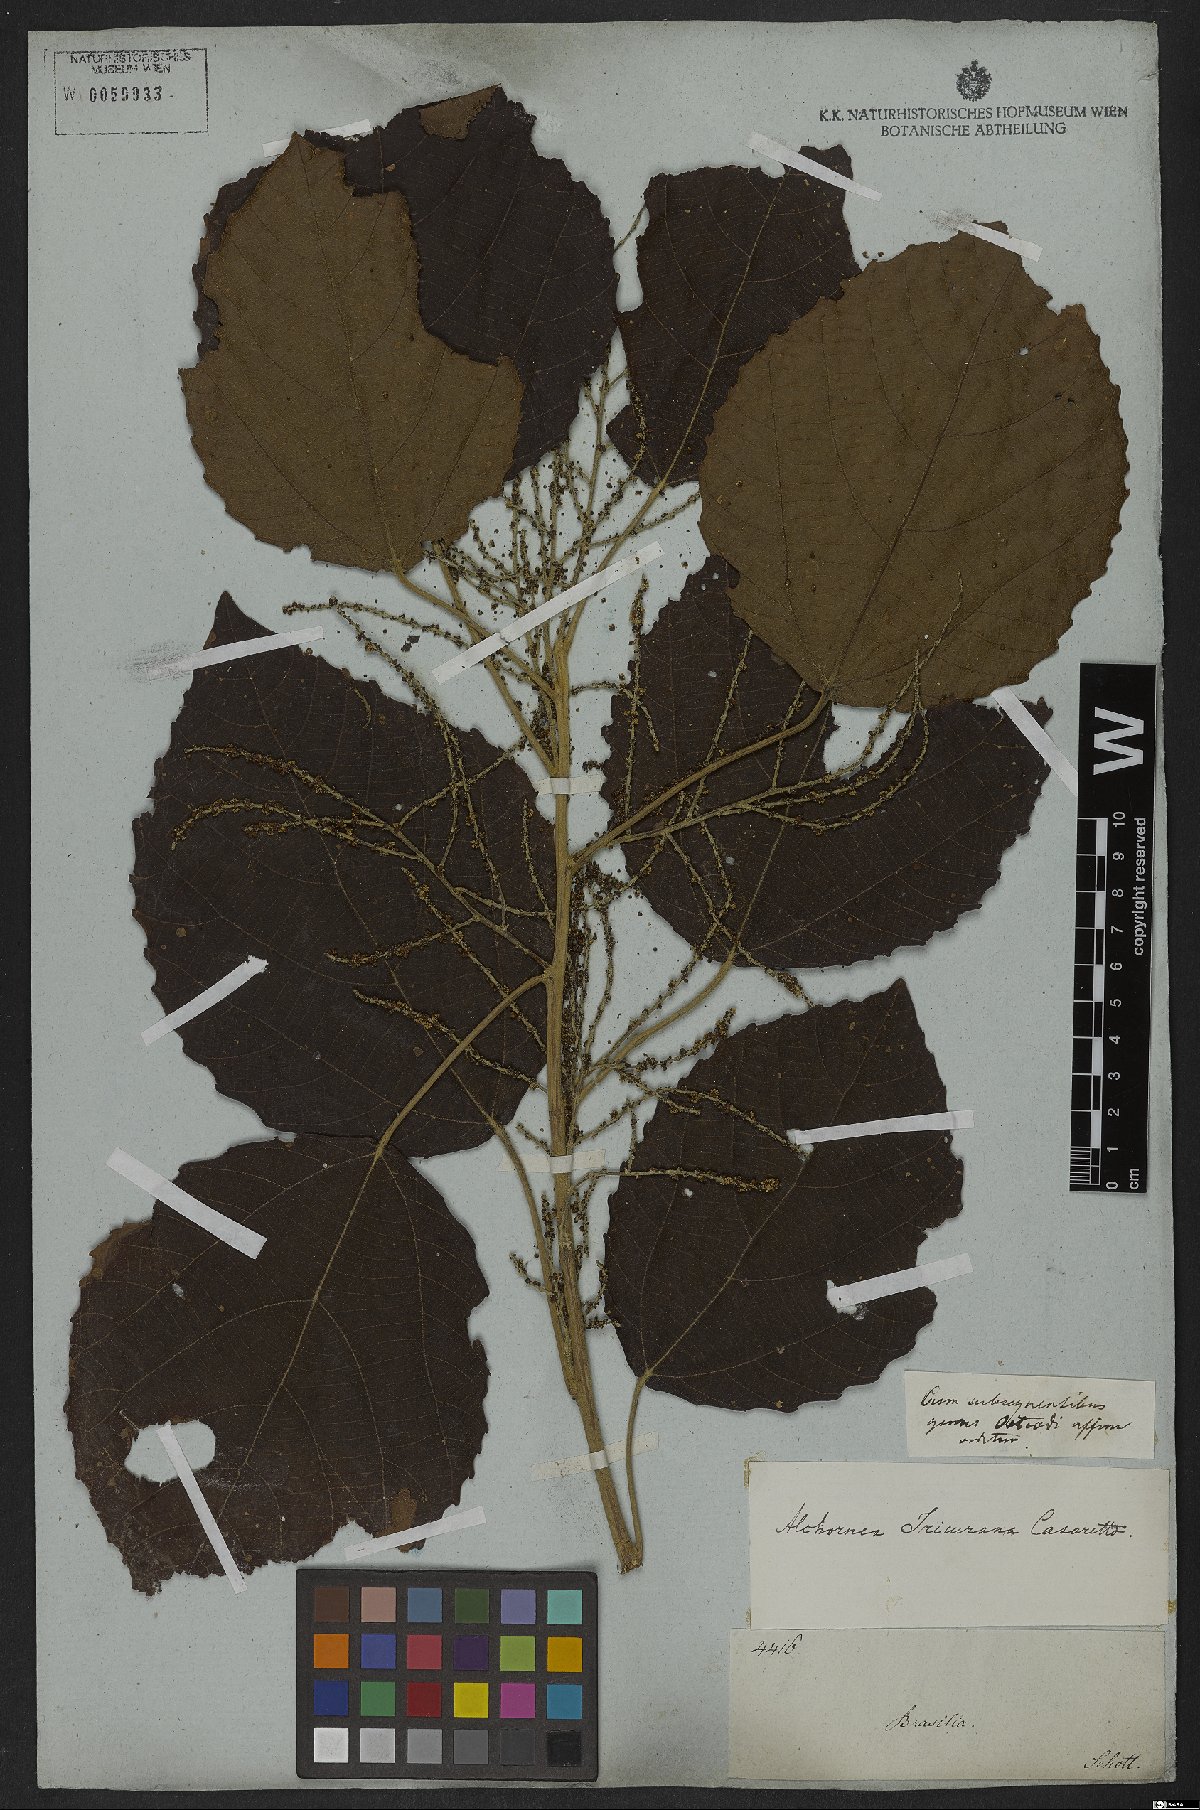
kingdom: Plantae
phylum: Tracheophyta
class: Magnoliopsida
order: Malpighiales
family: Euphorbiaceae
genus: Alchornea
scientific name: Alchornea glandulosa
